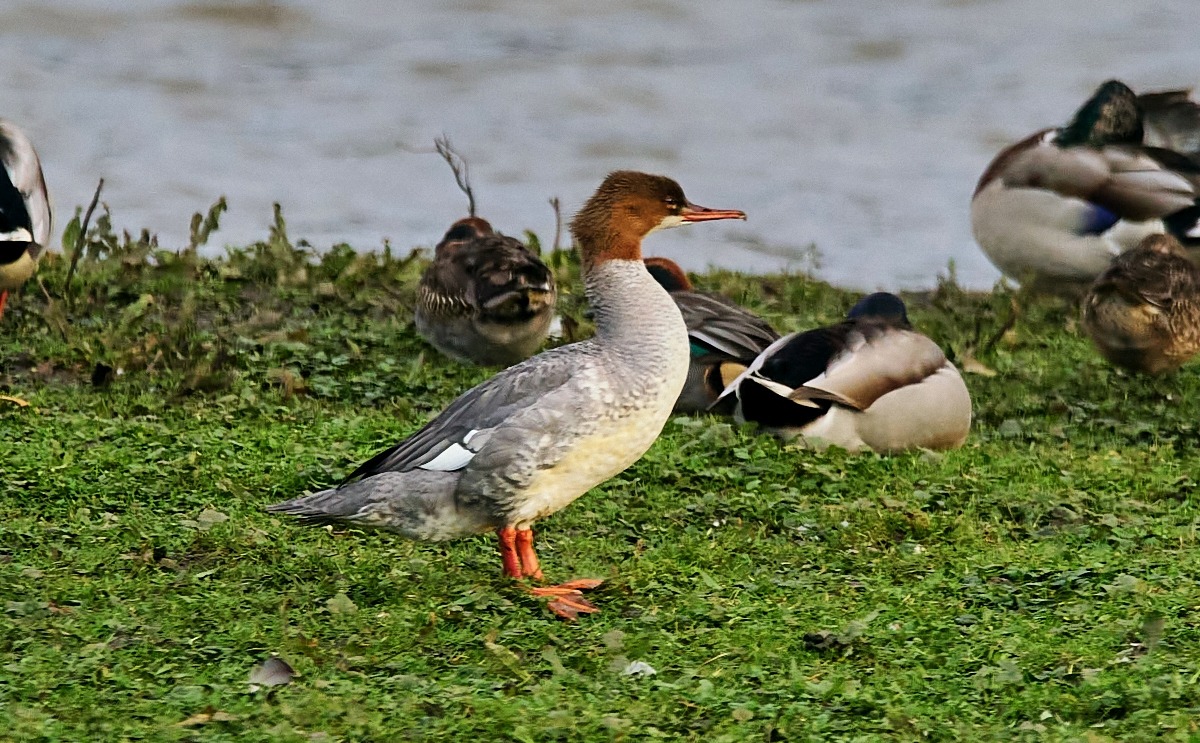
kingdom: Animalia
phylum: Chordata
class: Aves
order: Anseriformes
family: Anatidae
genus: Mergus
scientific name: Mergus merganser
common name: Stor skallesluger
